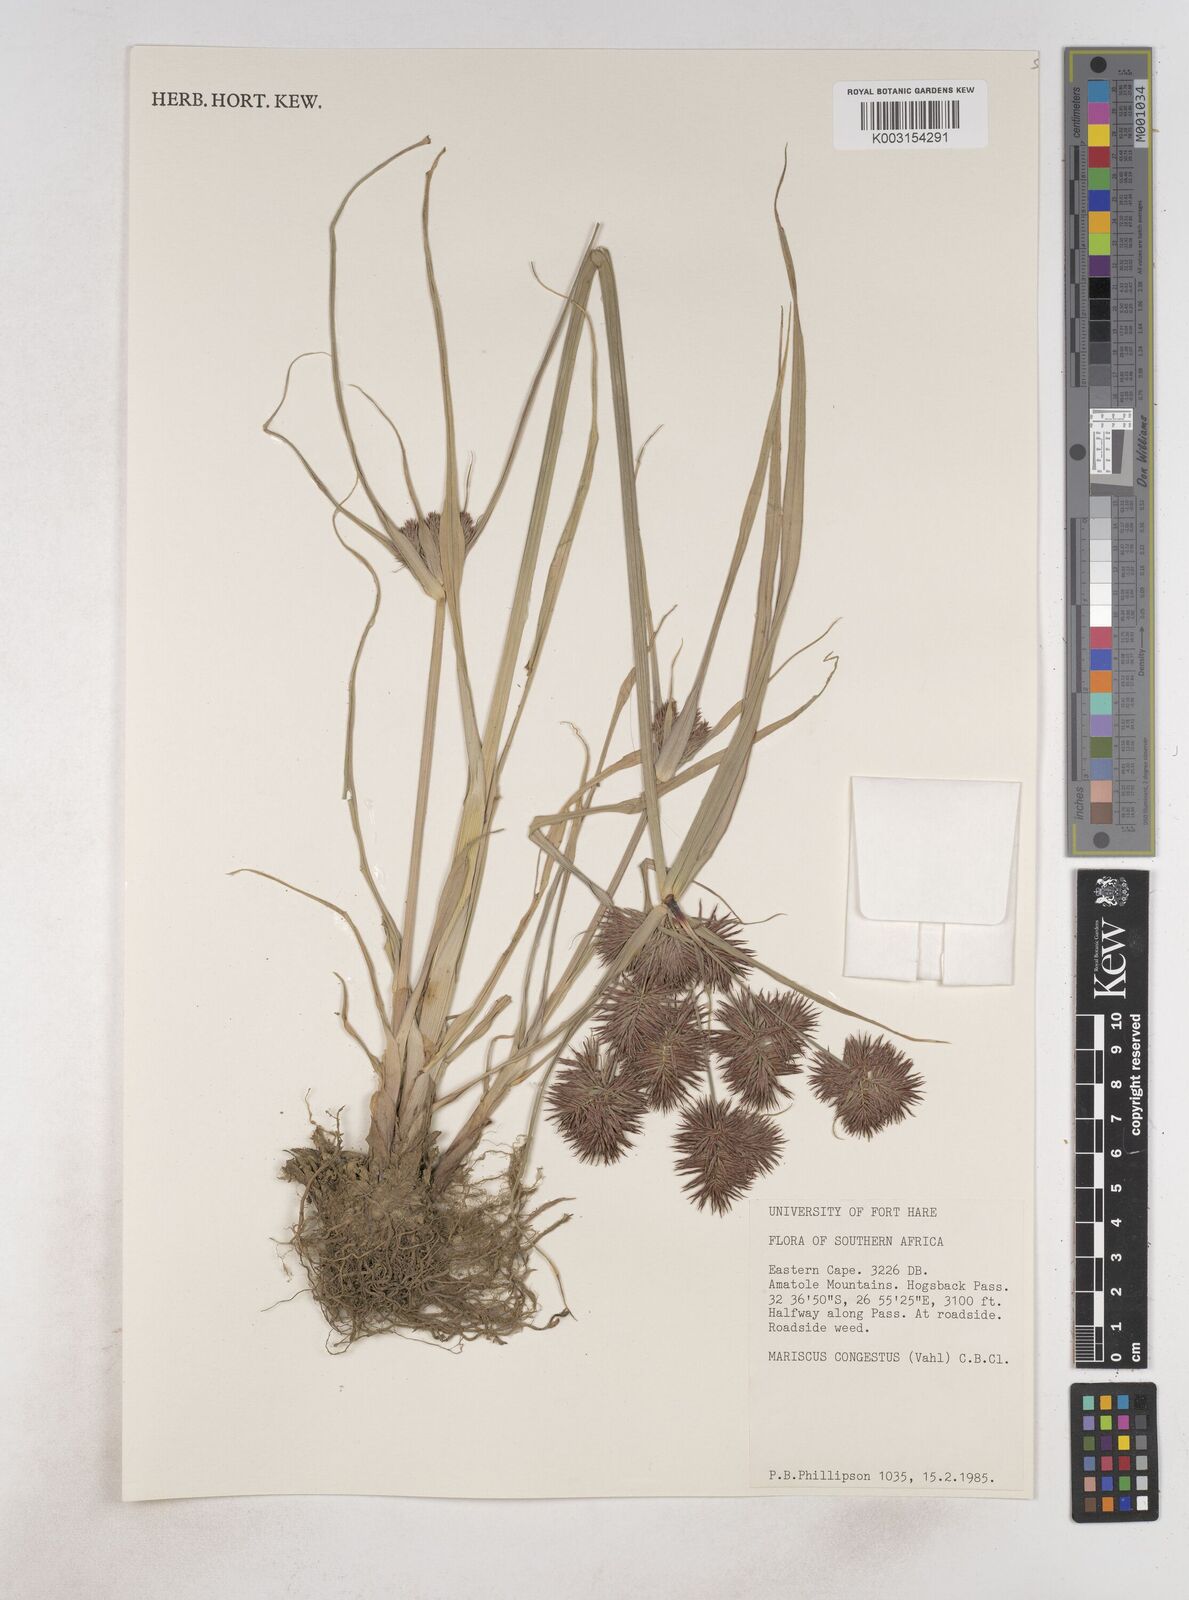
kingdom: Plantae
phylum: Tracheophyta
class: Liliopsida
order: Poales
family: Cyperaceae
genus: Cyperus
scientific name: Cyperus congestus
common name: Dense flat sedge
